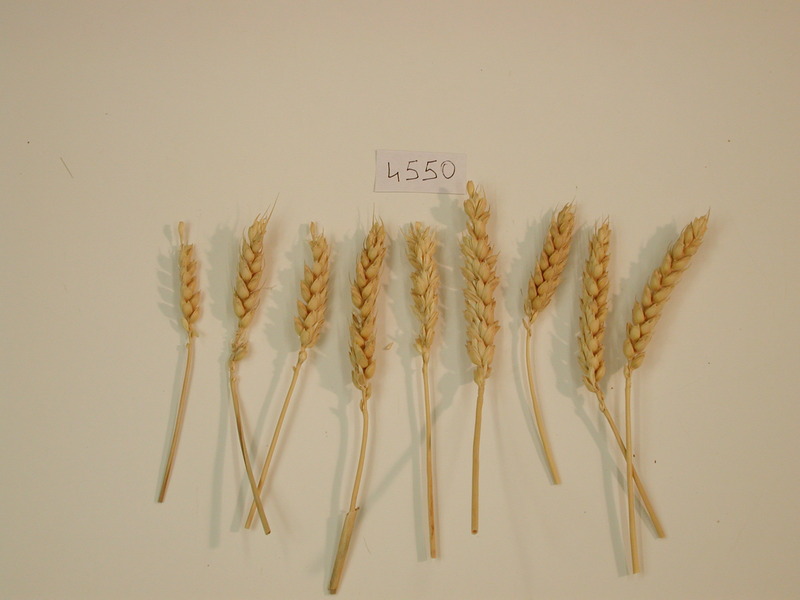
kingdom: Plantae
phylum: Tracheophyta
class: Liliopsida
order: Poales
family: Poaceae
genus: Triticum
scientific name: Triticum aestivum
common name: Common wheat
